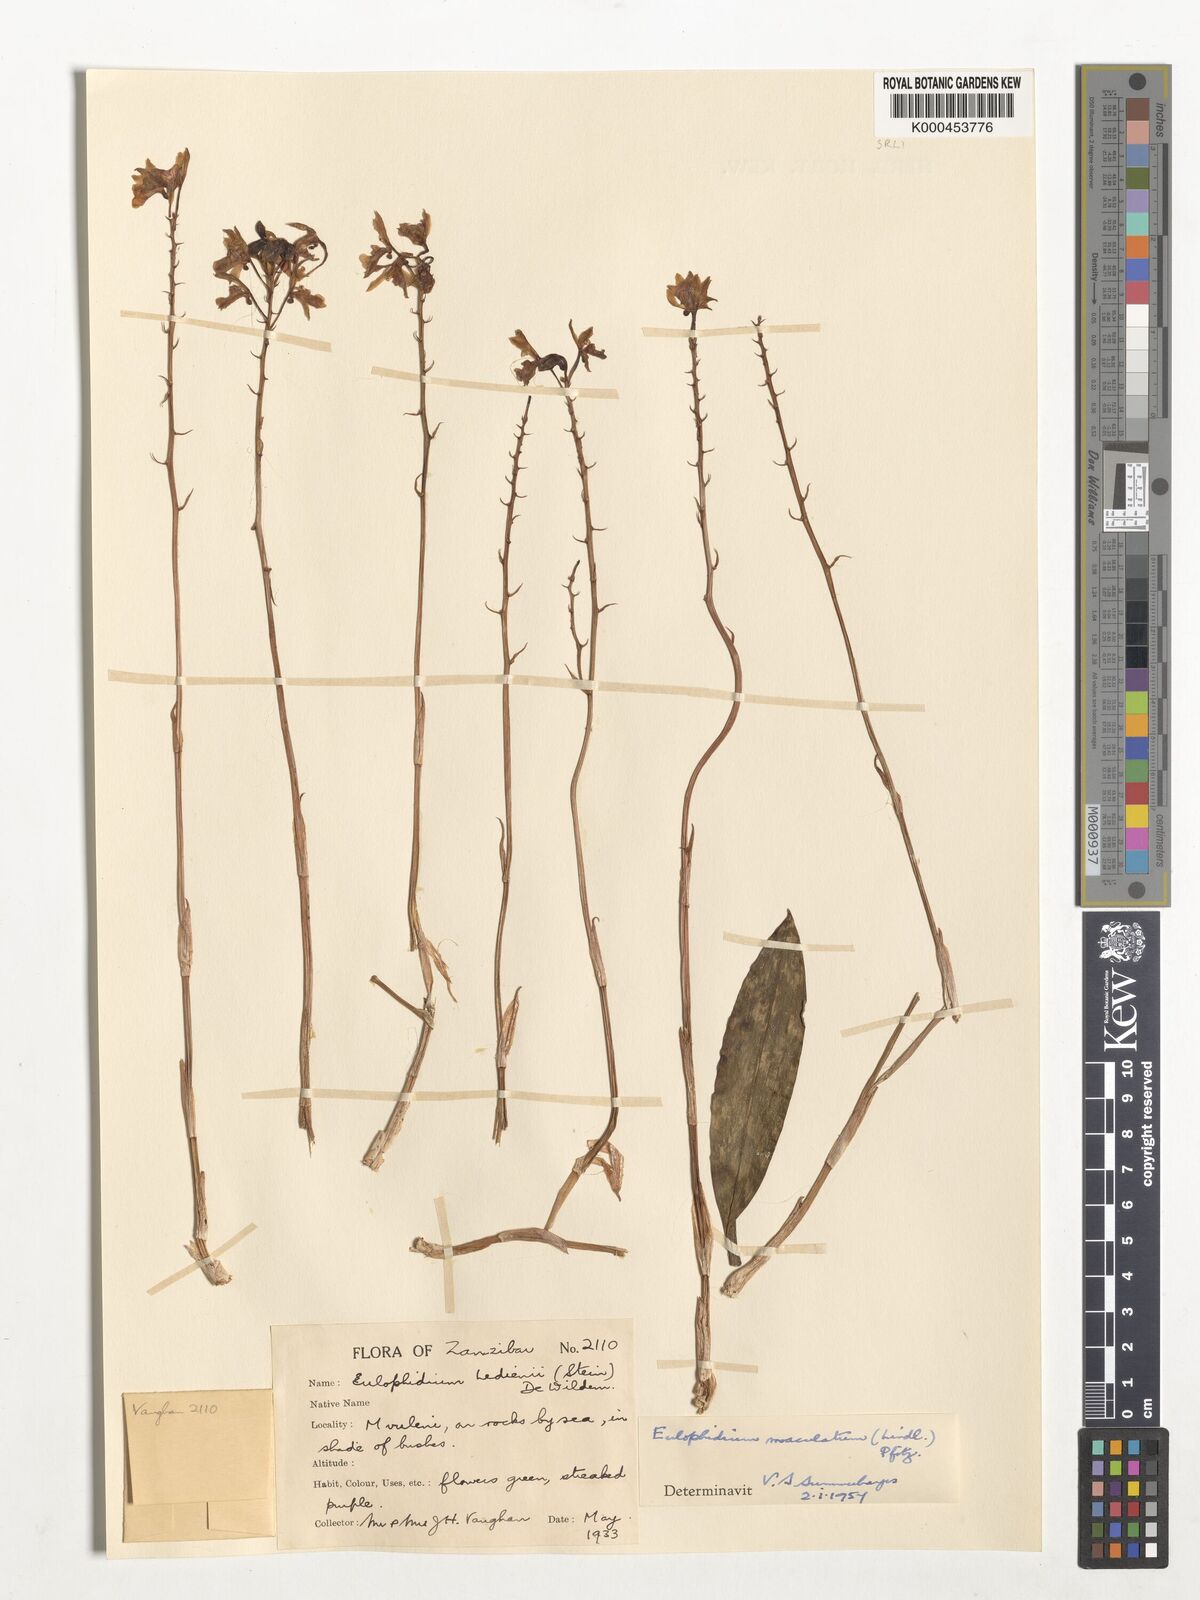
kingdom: Plantae
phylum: Tracheophyta
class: Liliopsida
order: Asparagales
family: Orchidaceae
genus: Eulophia
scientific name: Eulophia maculata
